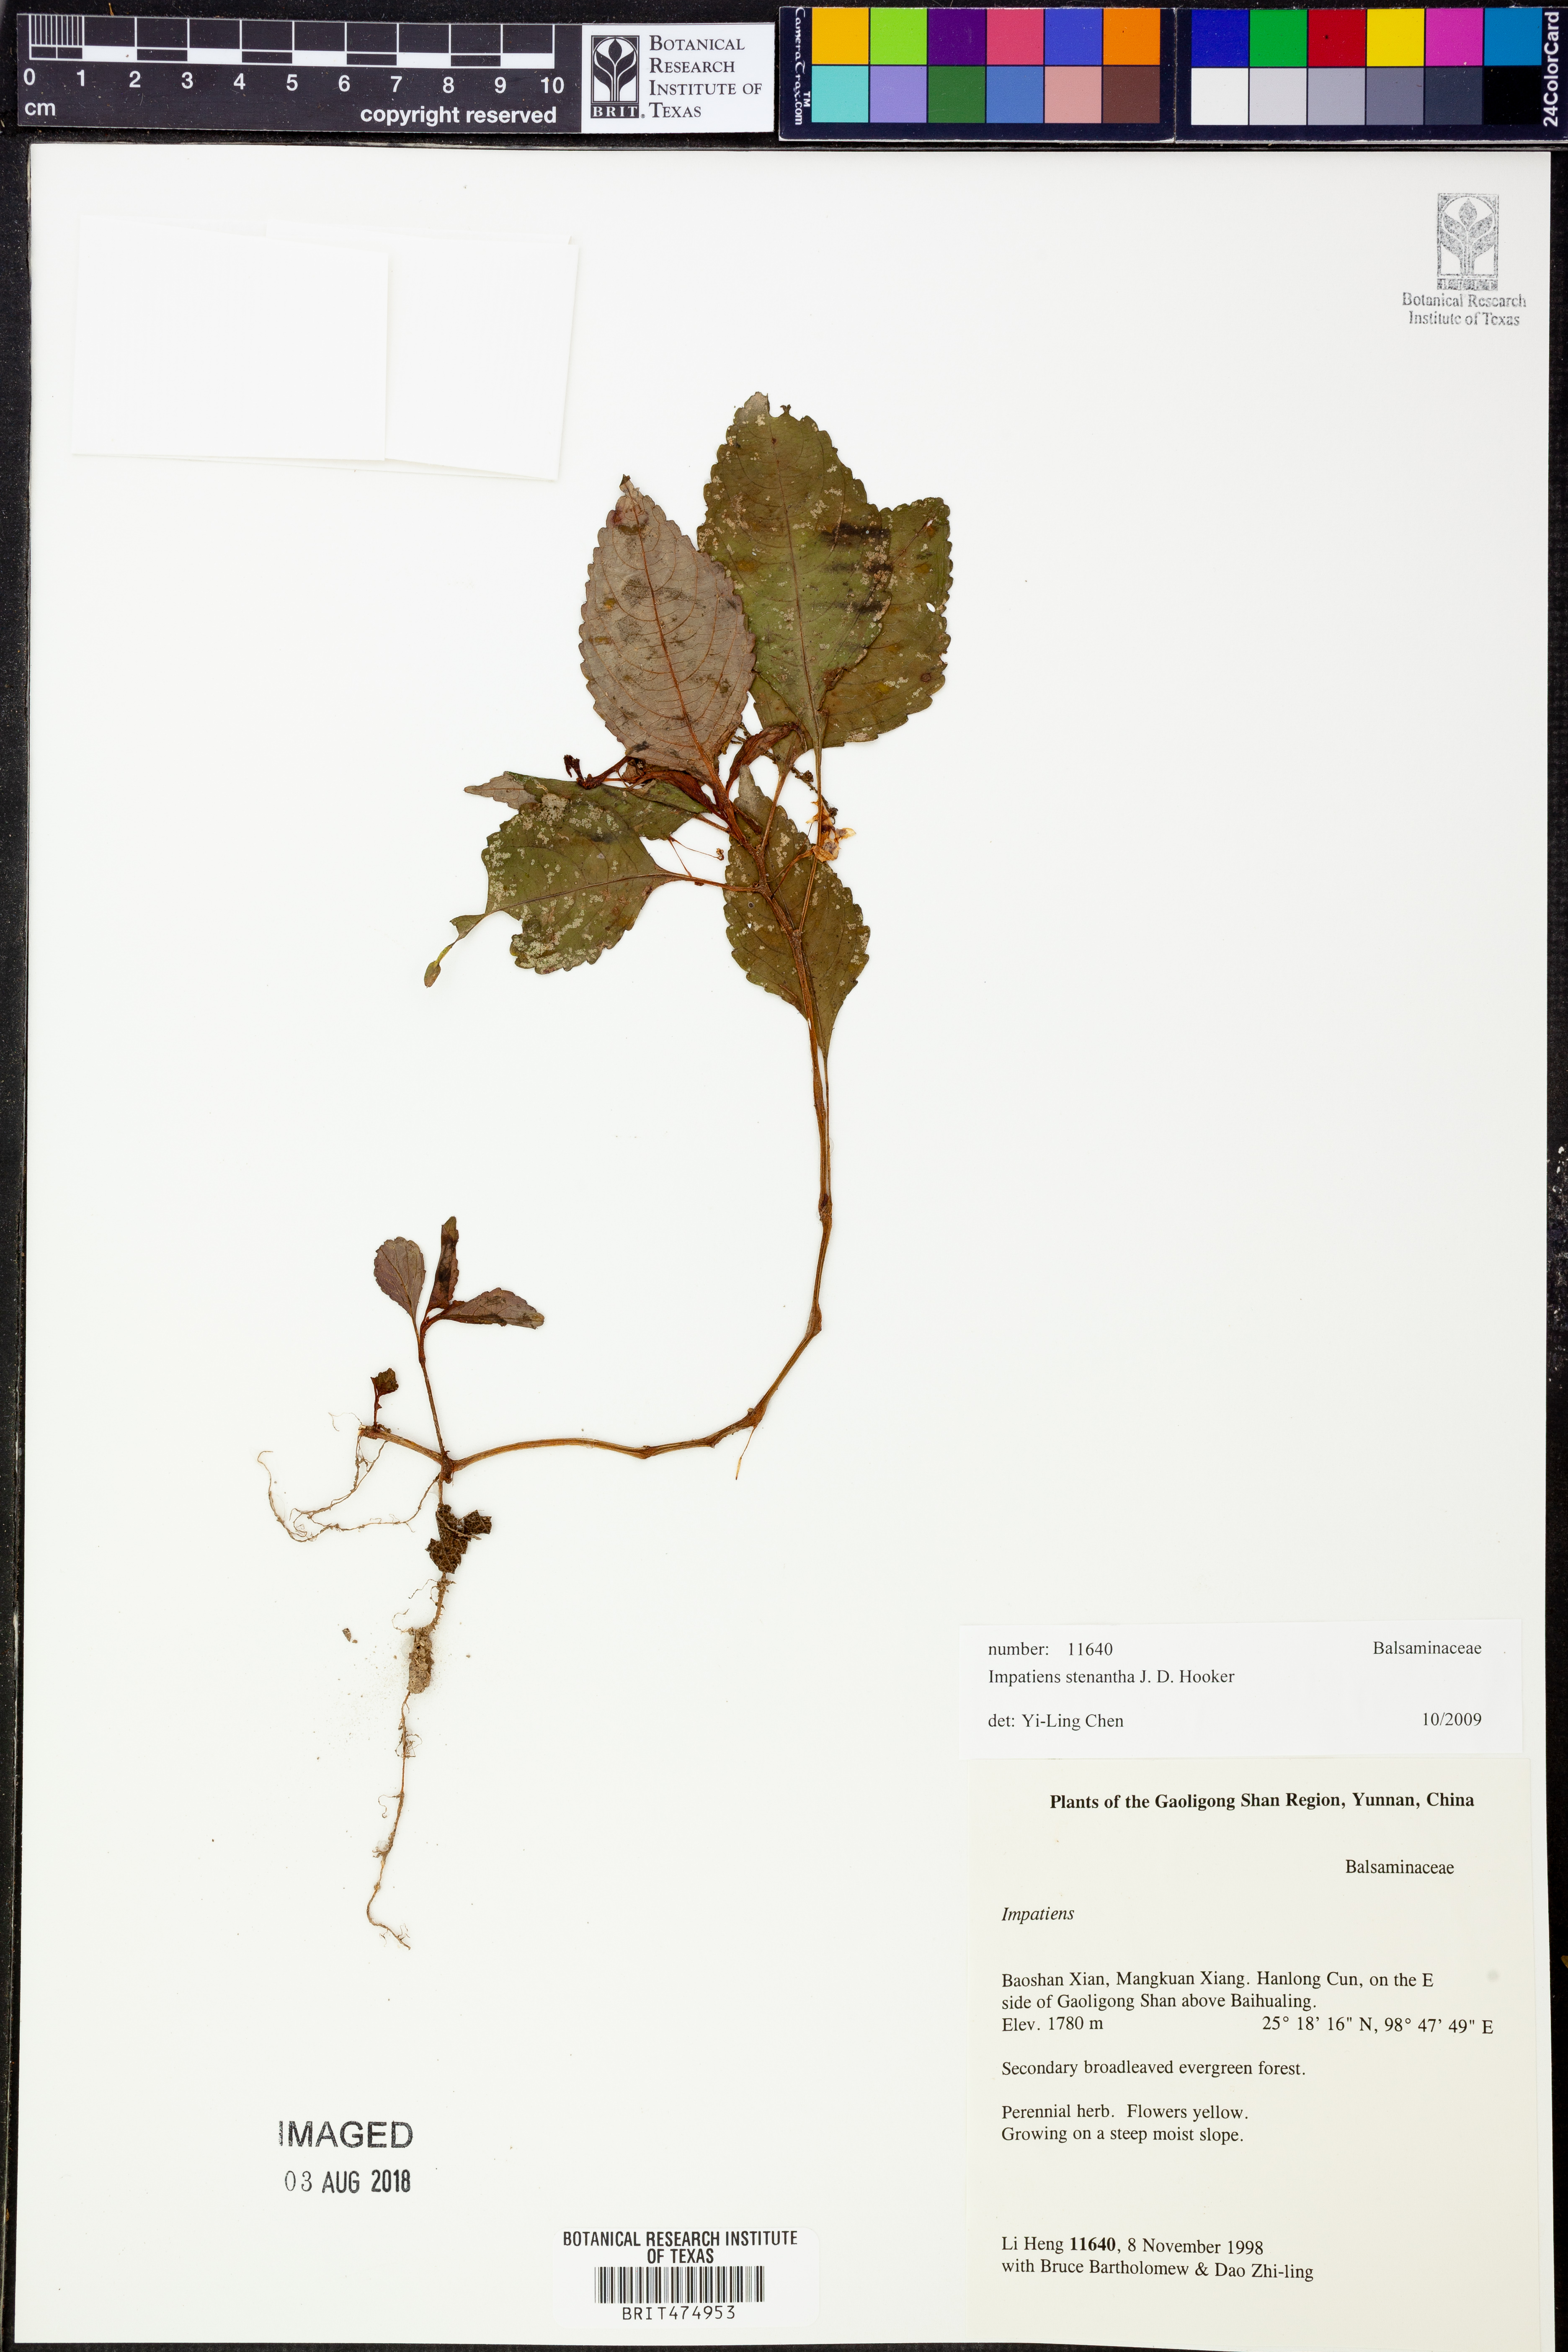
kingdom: Plantae
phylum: Tracheophyta
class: Magnoliopsida
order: Ericales
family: Balsaminaceae
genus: Impatiens
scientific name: Impatiens stenantha
